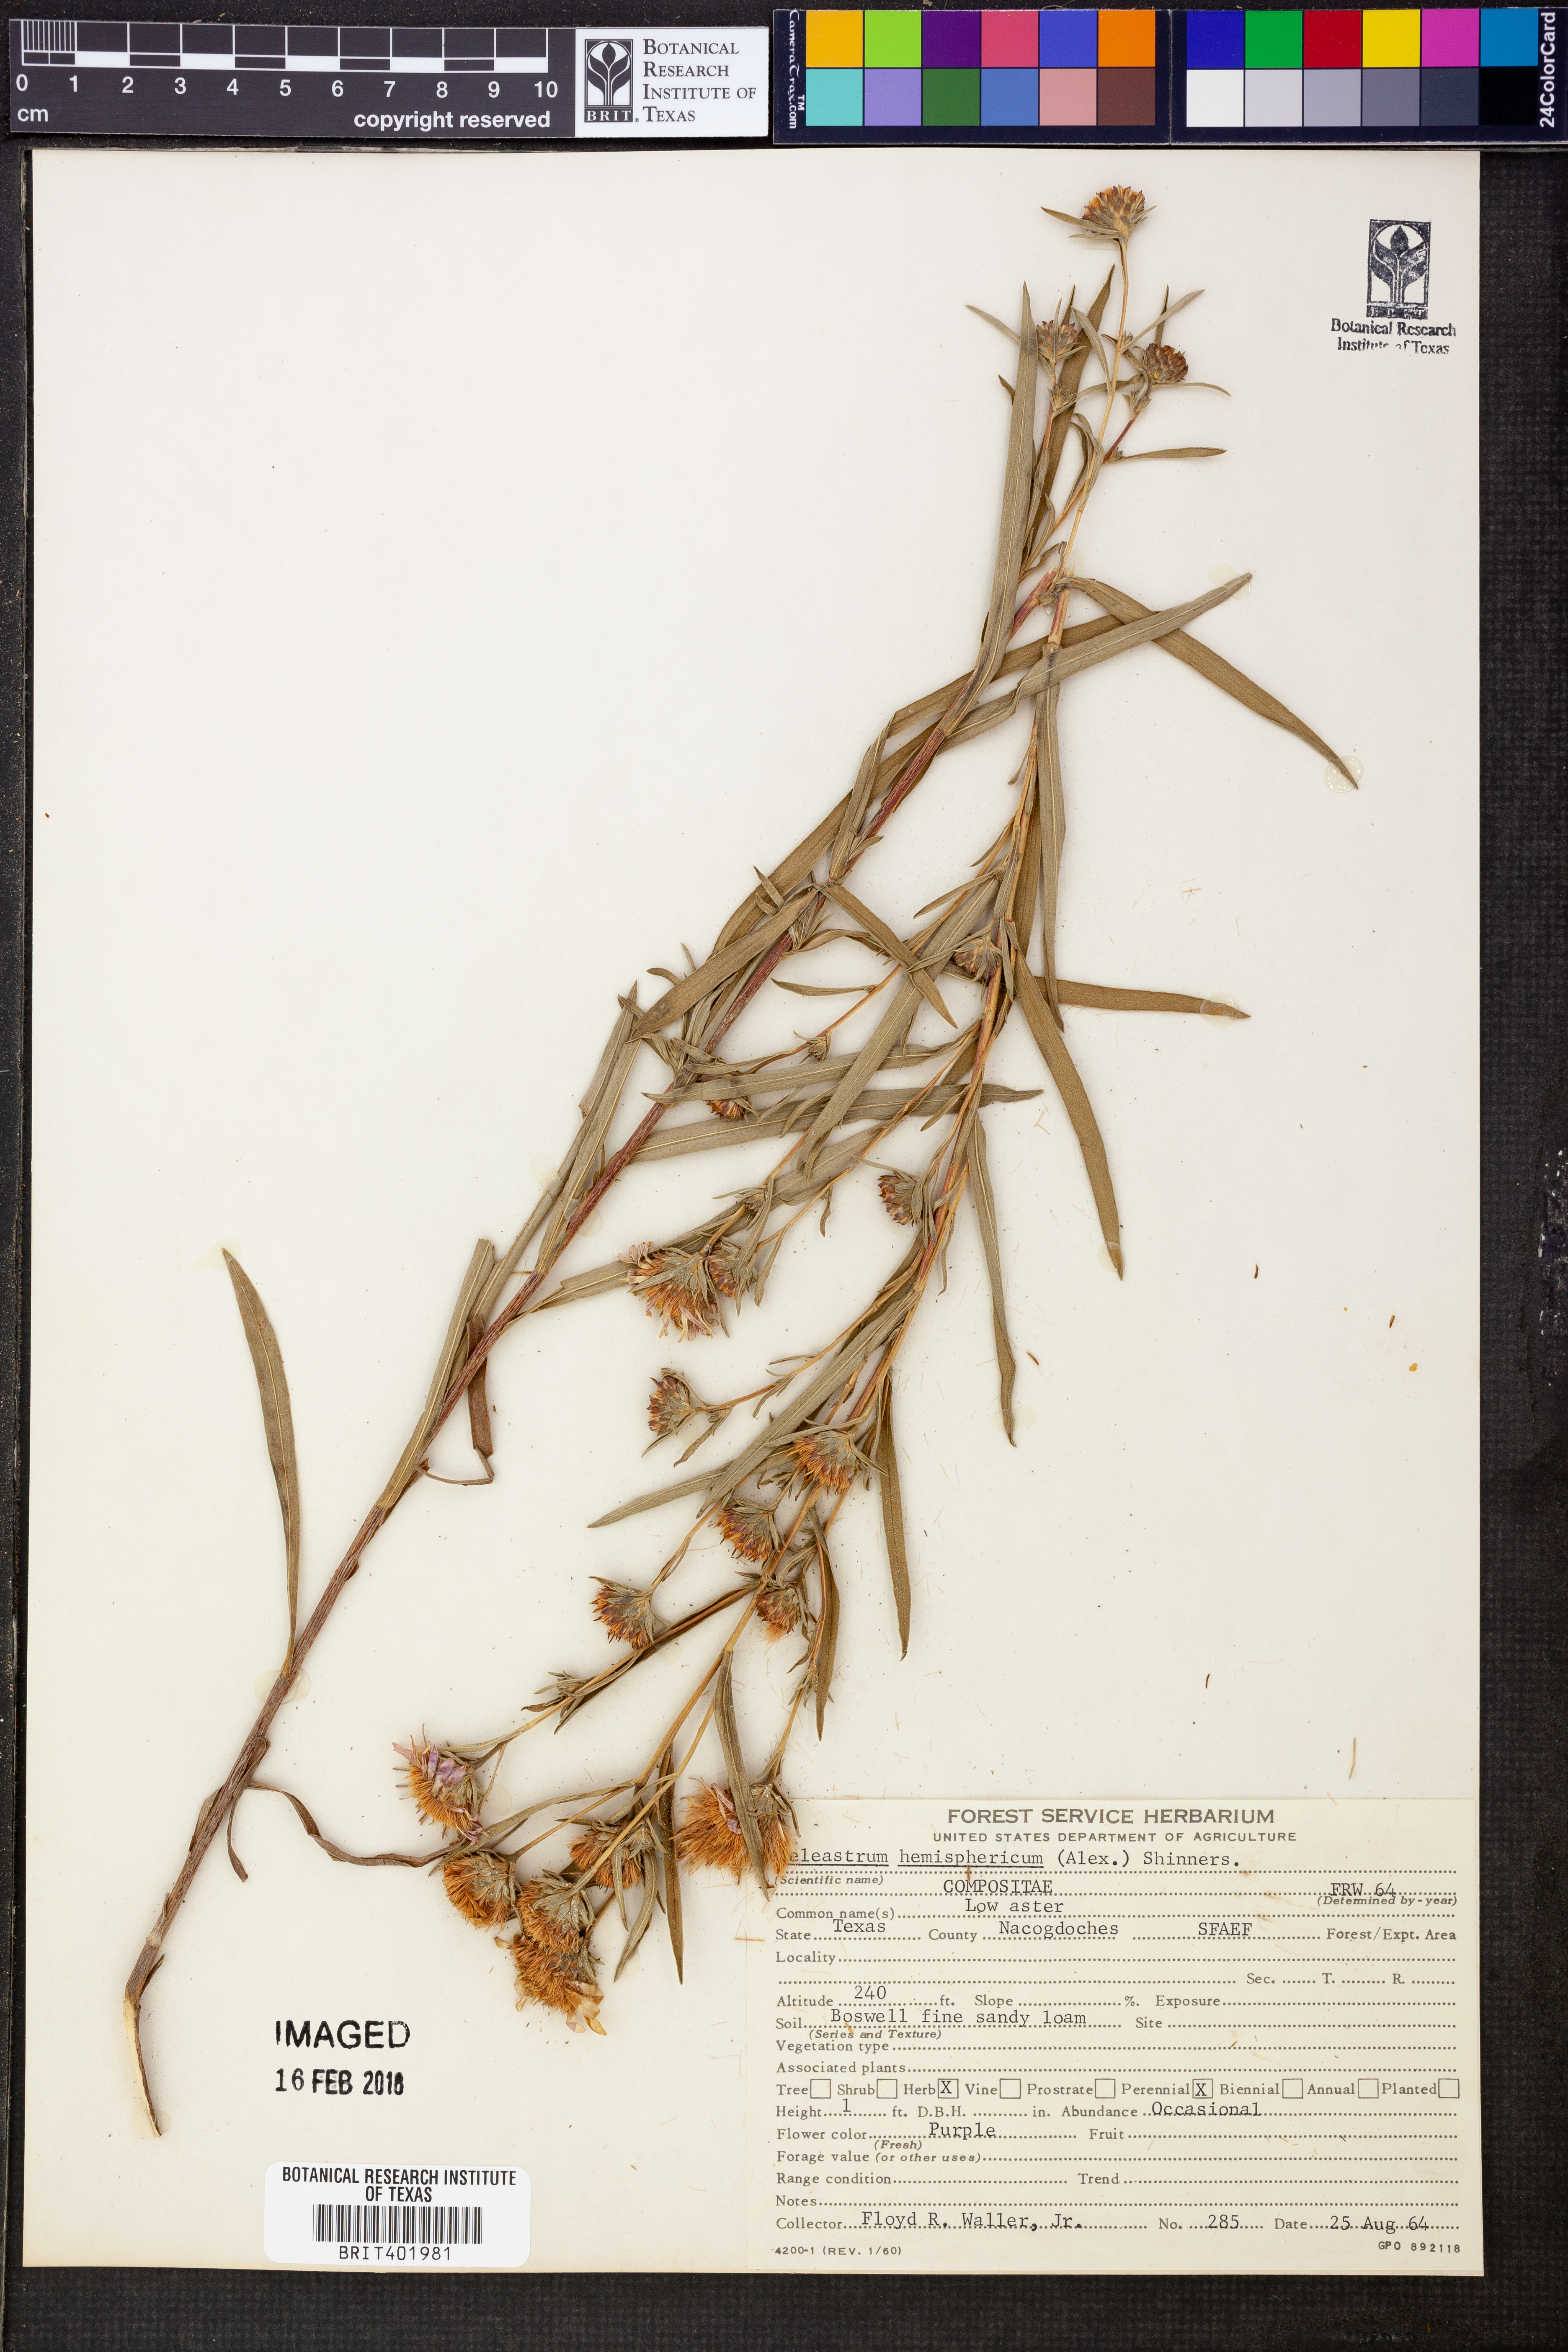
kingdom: Plantae
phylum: Tracheophyta
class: Magnoliopsida
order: Asterales
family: Asteraceae
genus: Eurybia
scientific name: Eurybia hemispherica
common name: Showy aster
